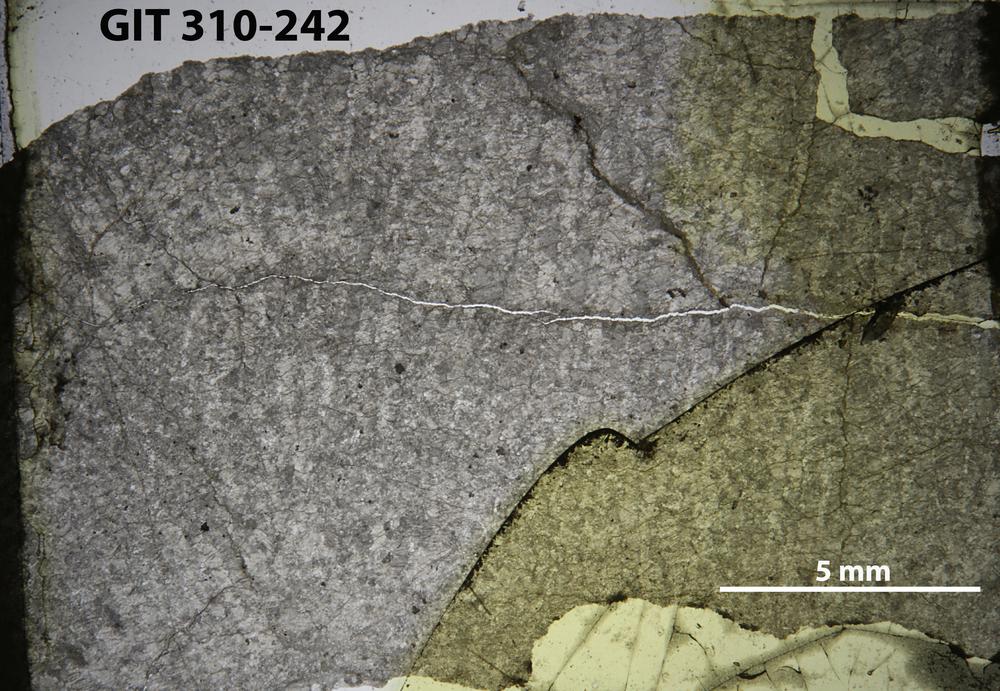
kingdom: Animalia
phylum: Porifera
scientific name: Porifera
